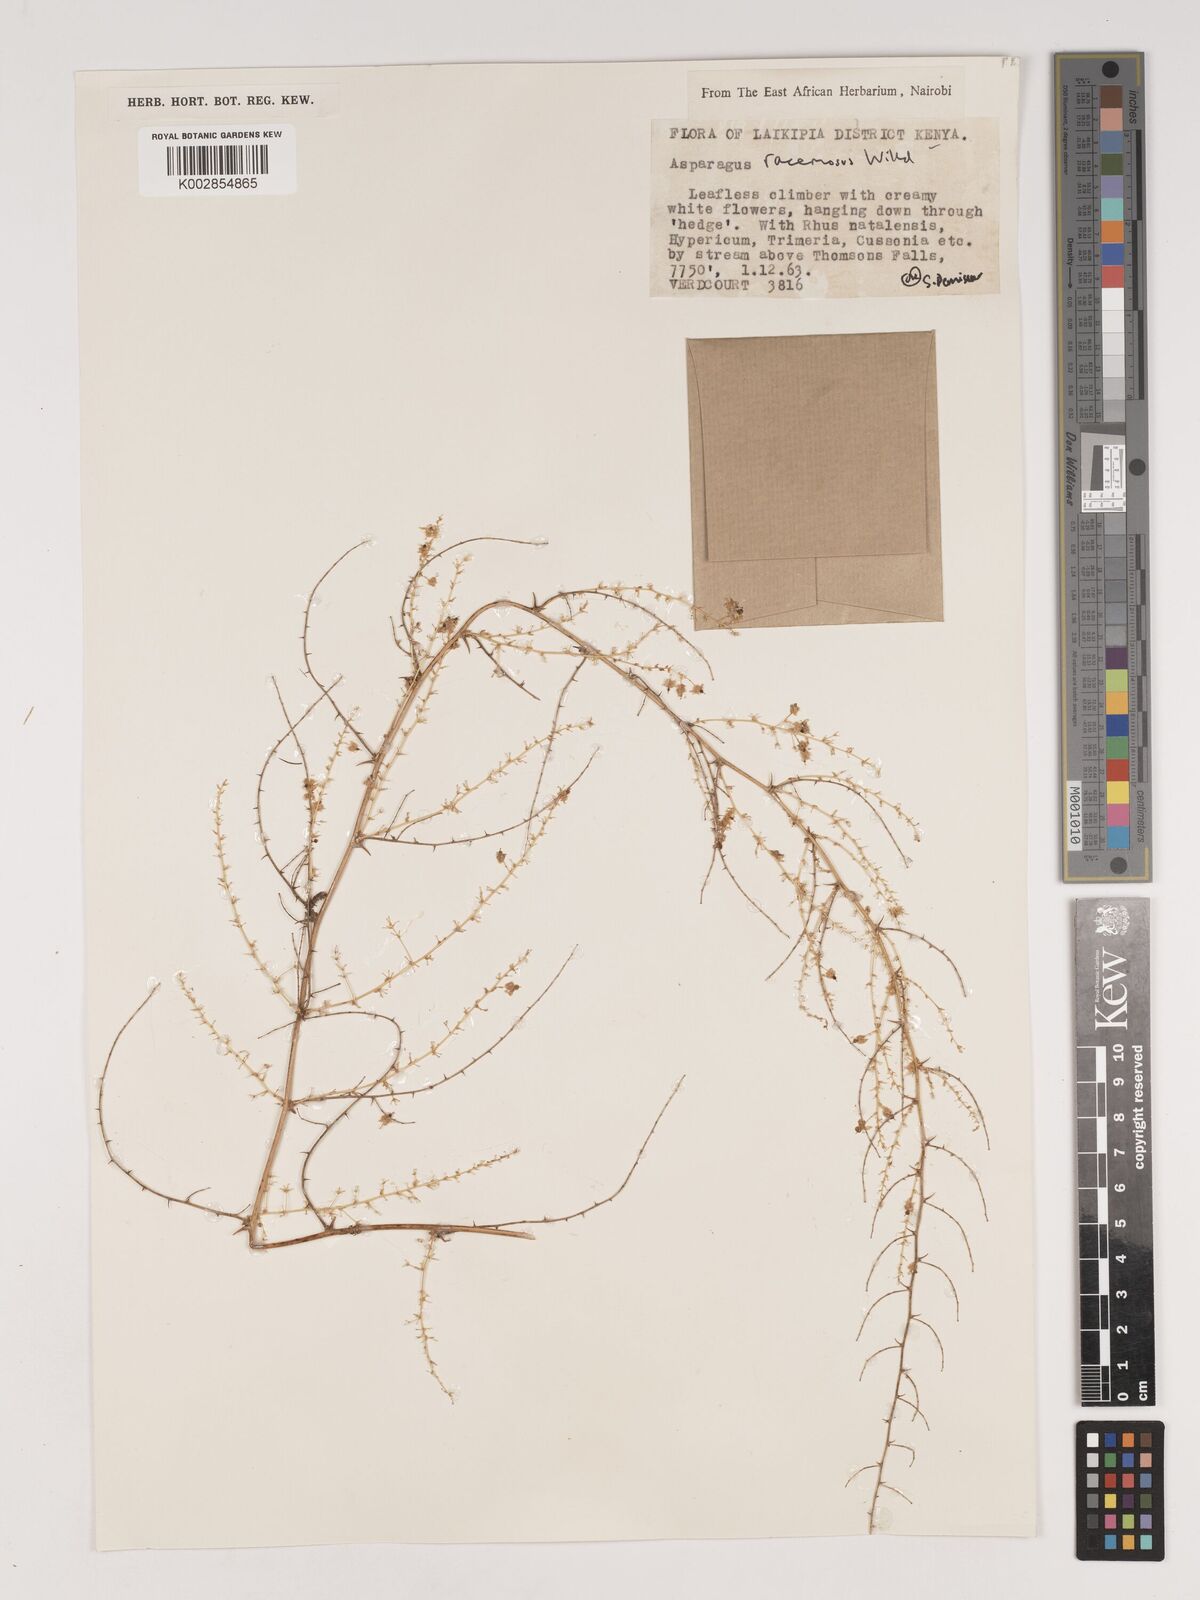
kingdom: Plantae
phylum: Tracheophyta
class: Liliopsida
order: Asparagales
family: Asparagaceae
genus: Asparagus
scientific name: Asparagus racemosus
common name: Asparagus-fern
